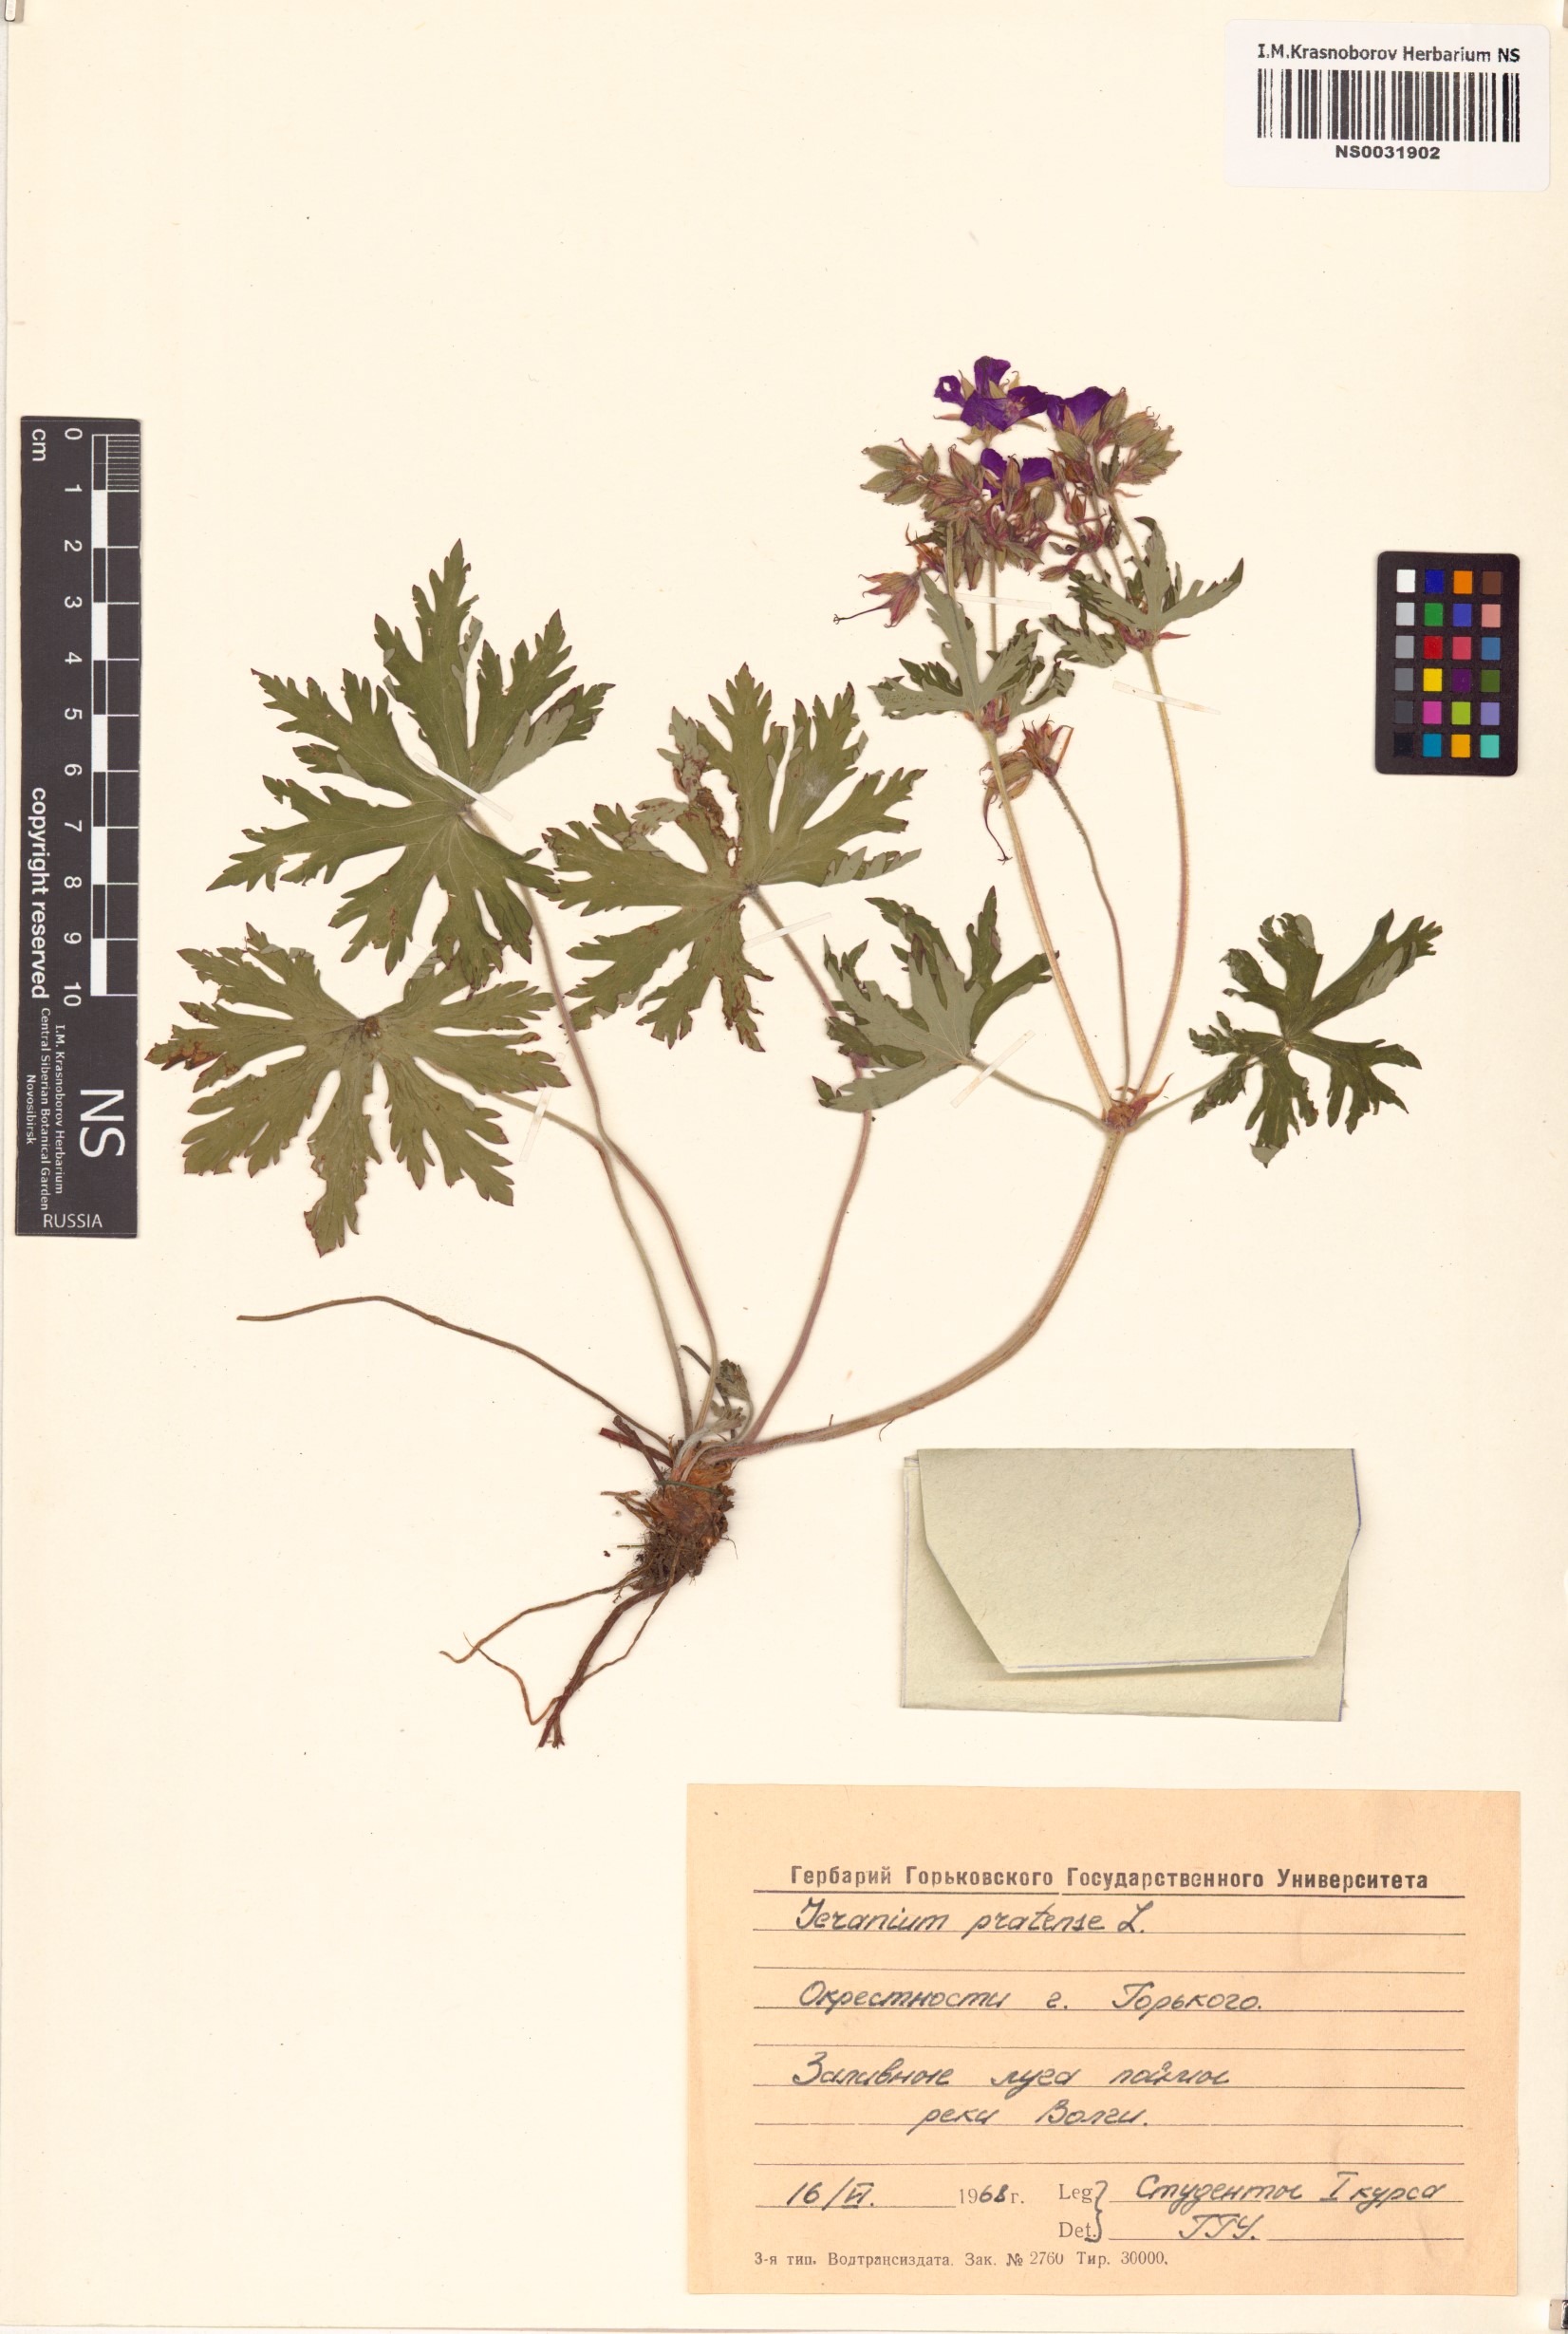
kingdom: Plantae
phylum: Tracheophyta
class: Magnoliopsida
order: Geraniales
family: Geraniaceae
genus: Geranium
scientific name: Geranium pratense
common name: Meadow crane's-bill
